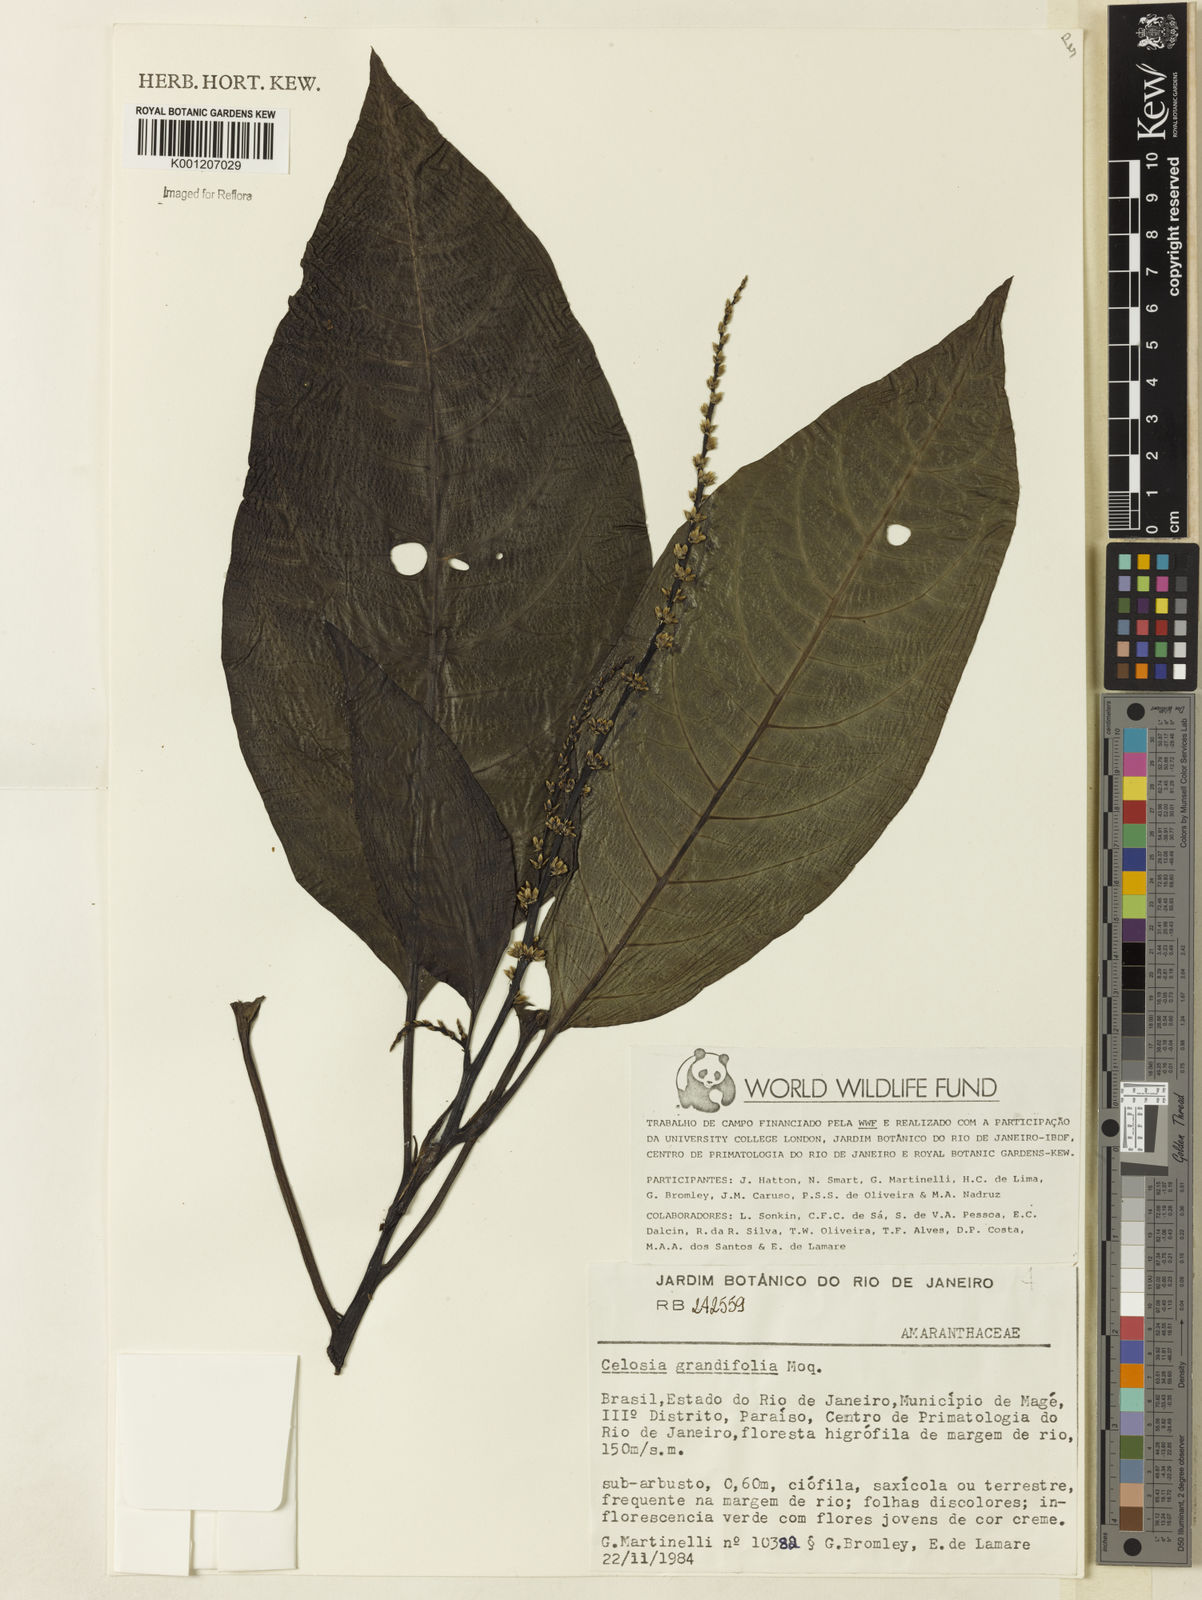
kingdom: Plantae
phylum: Tracheophyta
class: Magnoliopsida
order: Caryophyllales
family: Amaranthaceae
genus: Celosia
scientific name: Celosia grandifolia
